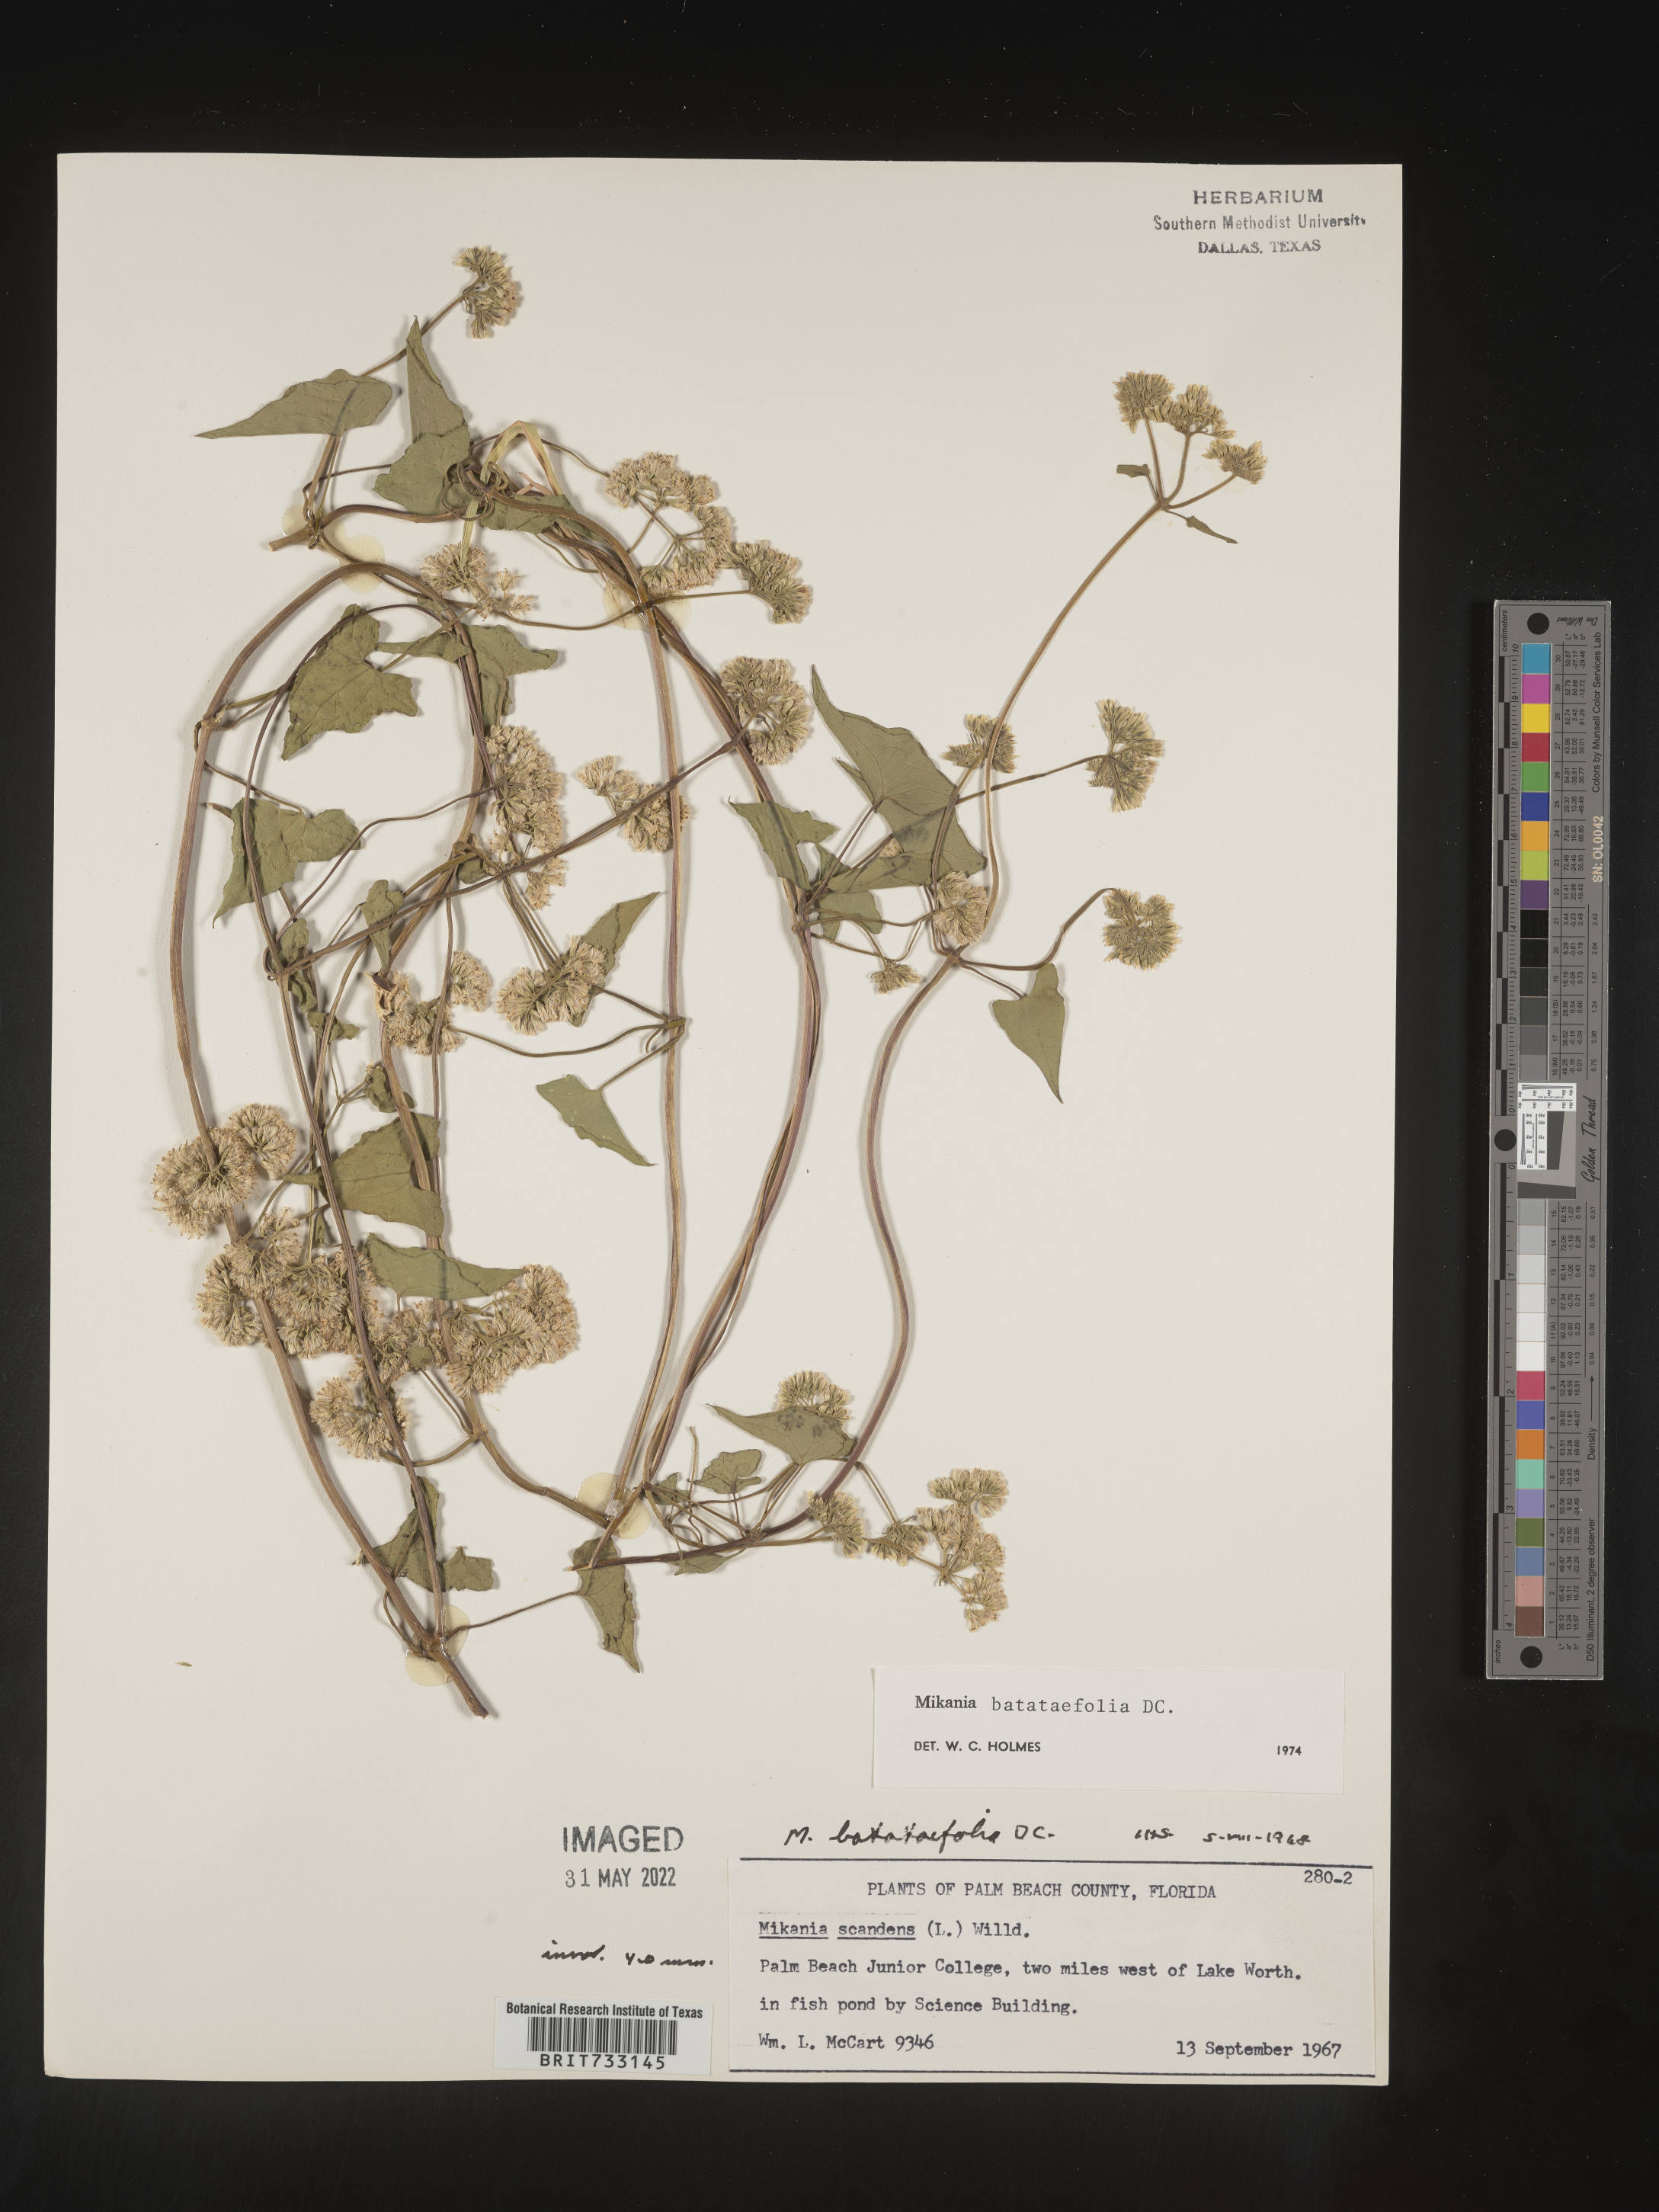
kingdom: Plantae
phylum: Tracheophyta
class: Magnoliopsida
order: Asterales
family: Asteraceae
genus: Mikania
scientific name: Mikania
